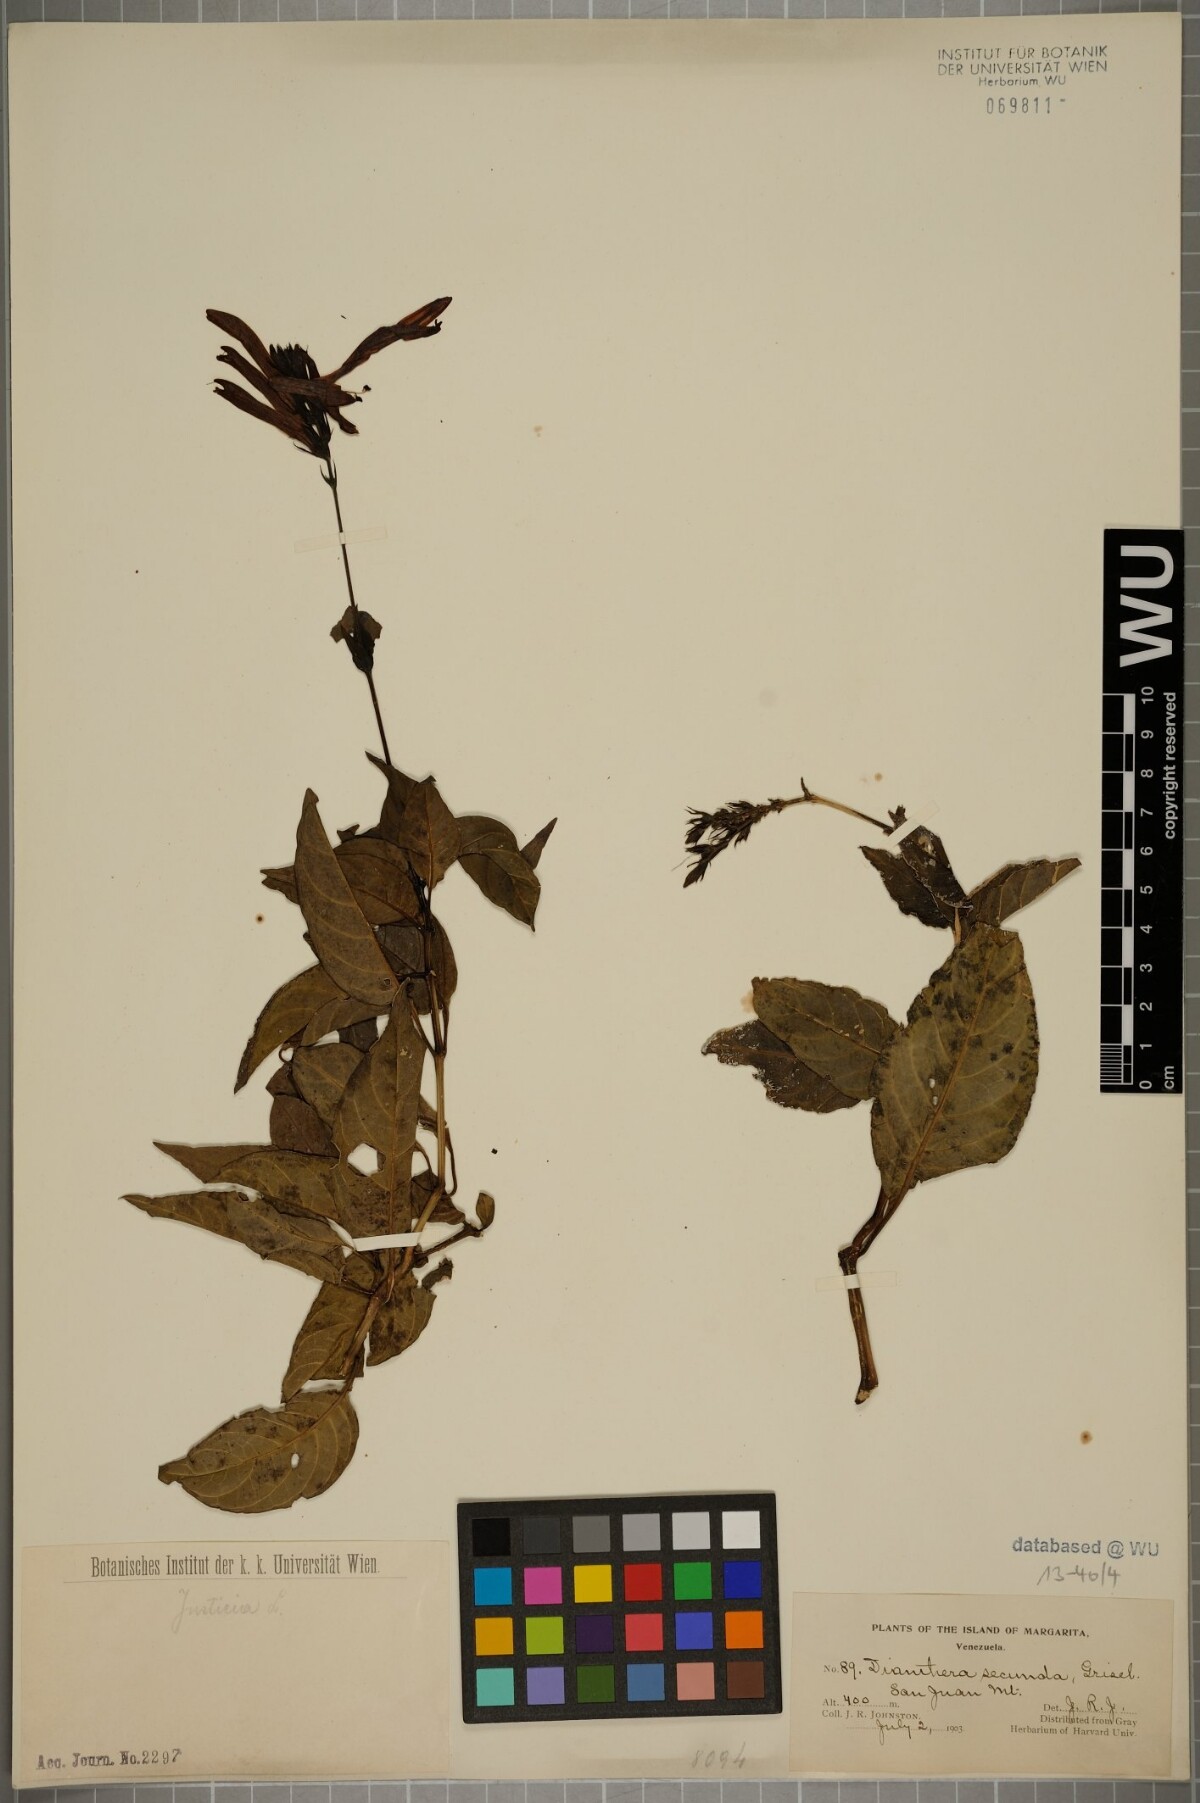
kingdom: Plantae
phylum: Tracheophyta
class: Magnoliopsida
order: Lamiales
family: Acanthaceae
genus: Justicia
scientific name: Justicia secunda
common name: Blood root
